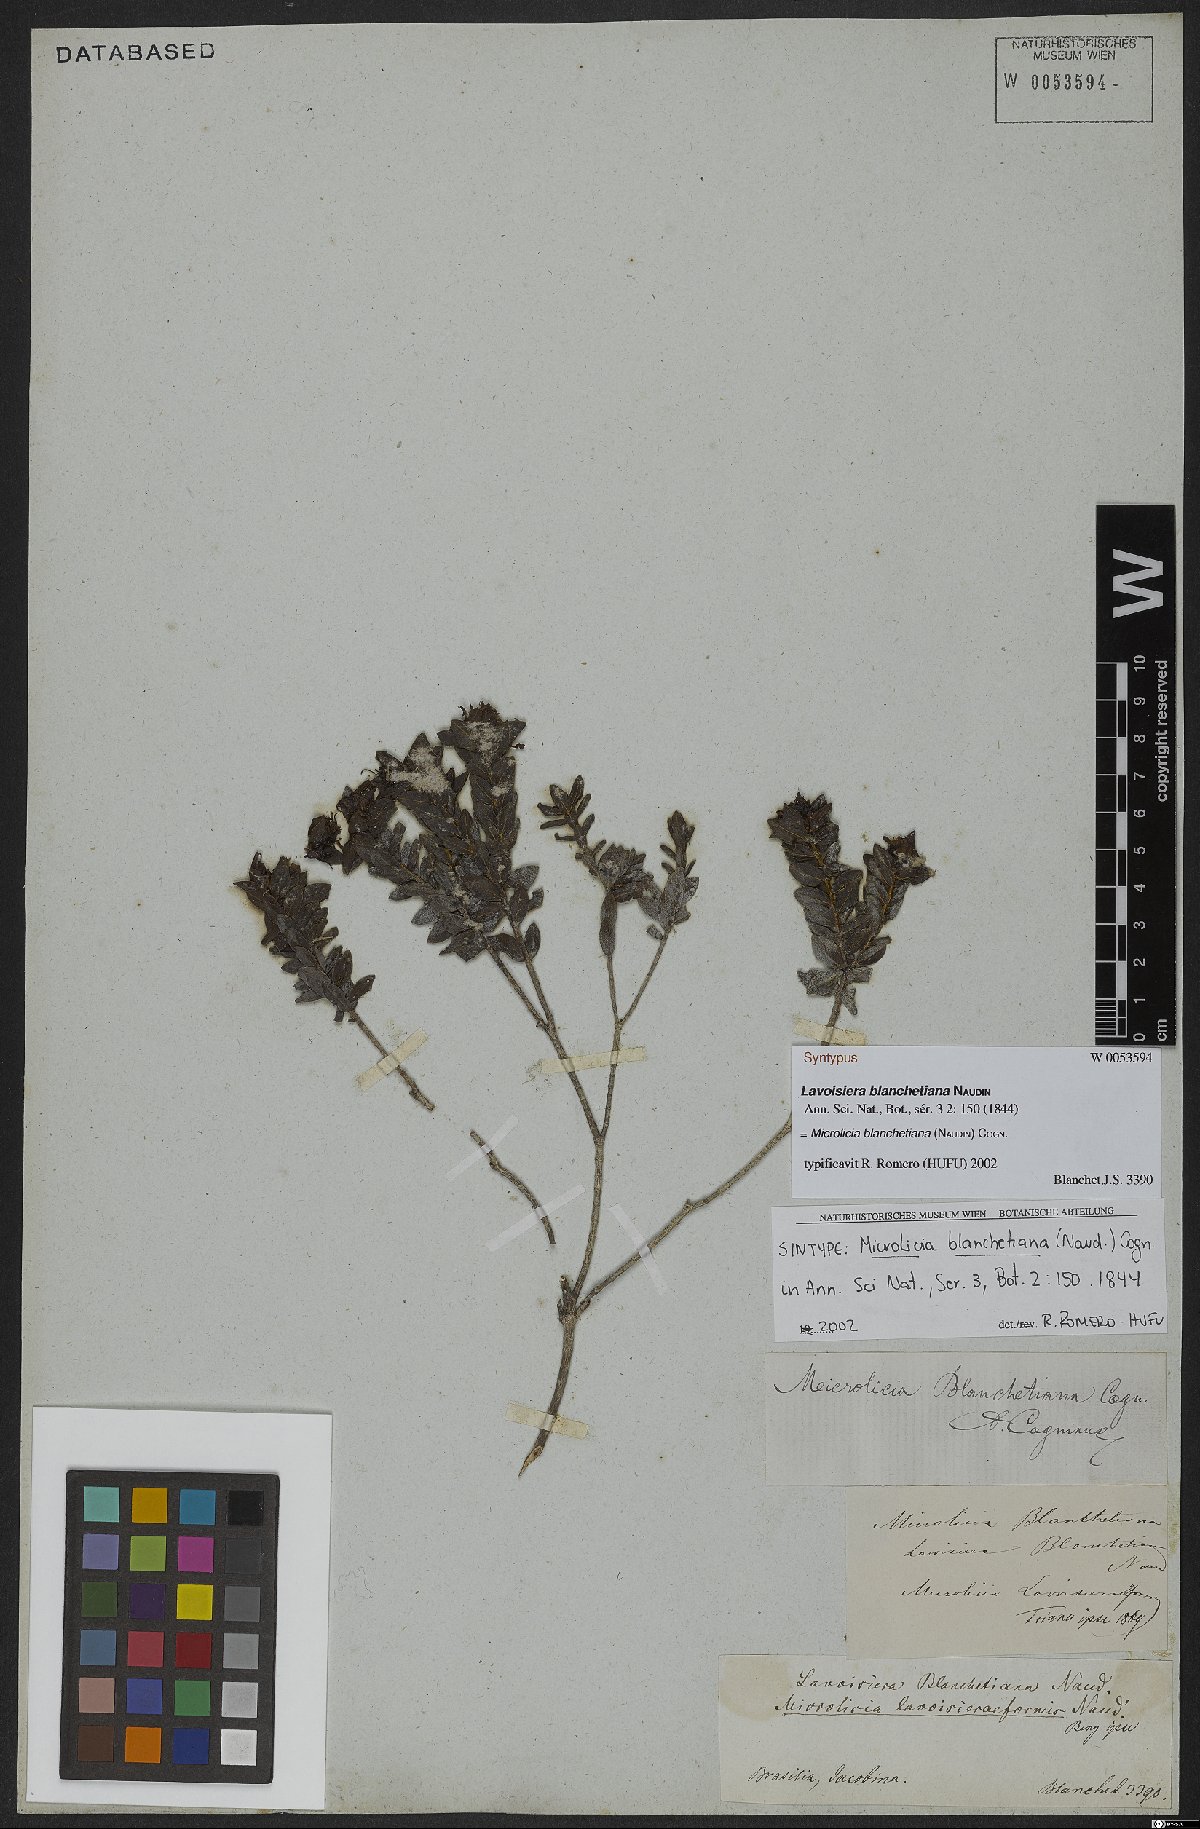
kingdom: Plantae
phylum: Tracheophyta
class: Magnoliopsida
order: Myrtales
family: Melastomataceae
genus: Microlicia
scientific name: Microlicia blanchetiana
